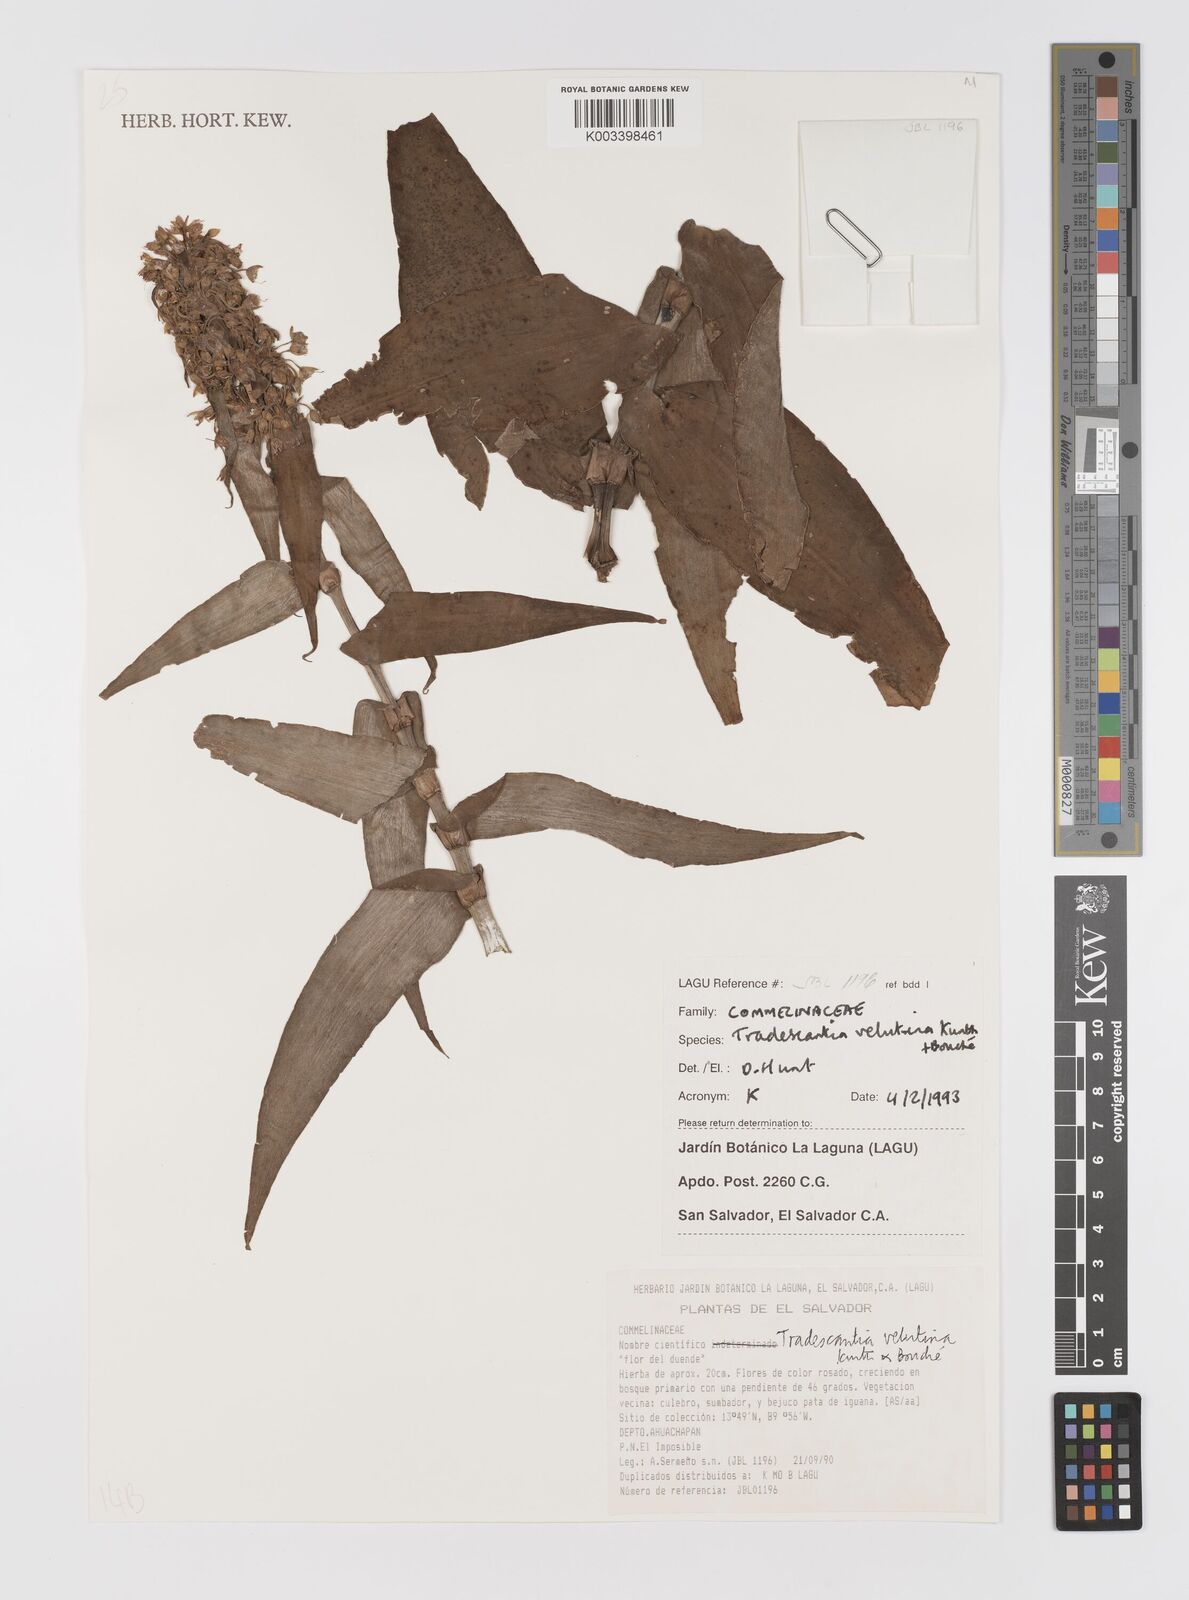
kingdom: Plantae
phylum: Tracheophyta
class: Liliopsida
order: Commelinales
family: Commelinaceae
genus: Tradescantia
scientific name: Tradescantia velutina
